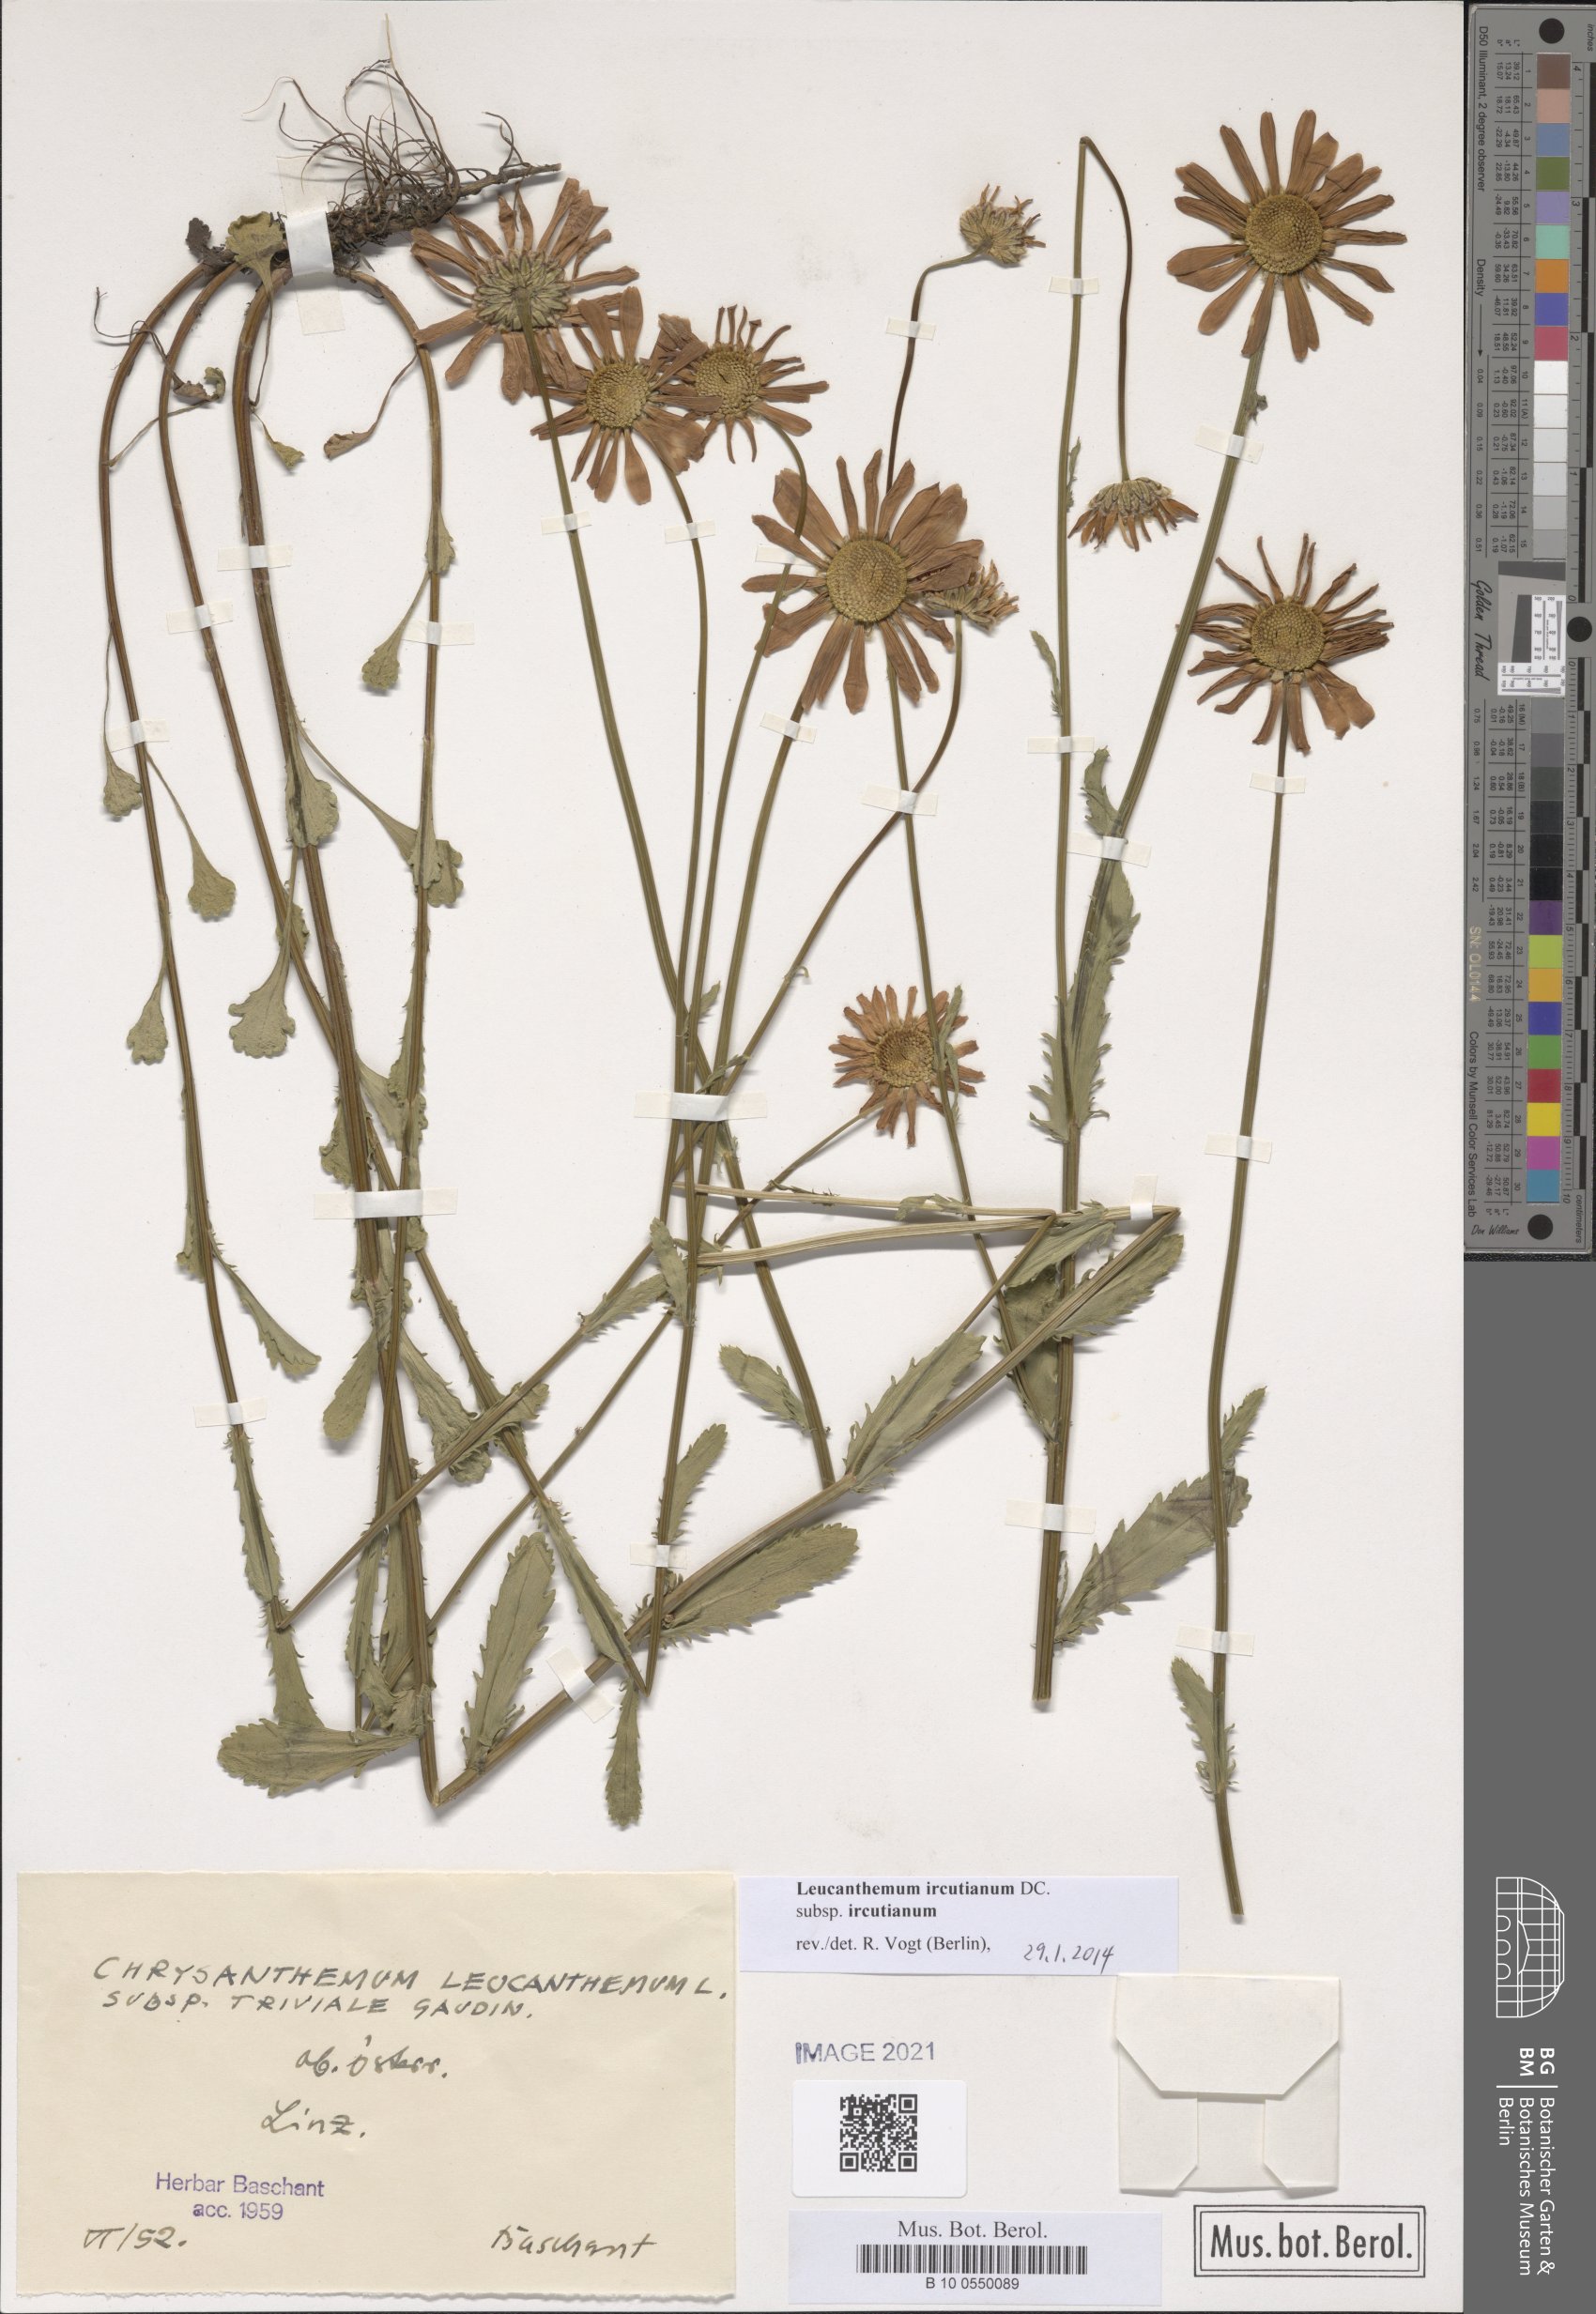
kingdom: Plantae
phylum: Tracheophyta
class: Magnoliopsida
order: Asterales
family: Asteraceae
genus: Leucanthemum
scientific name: Leucanthemum ircutianum
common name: Daisy
